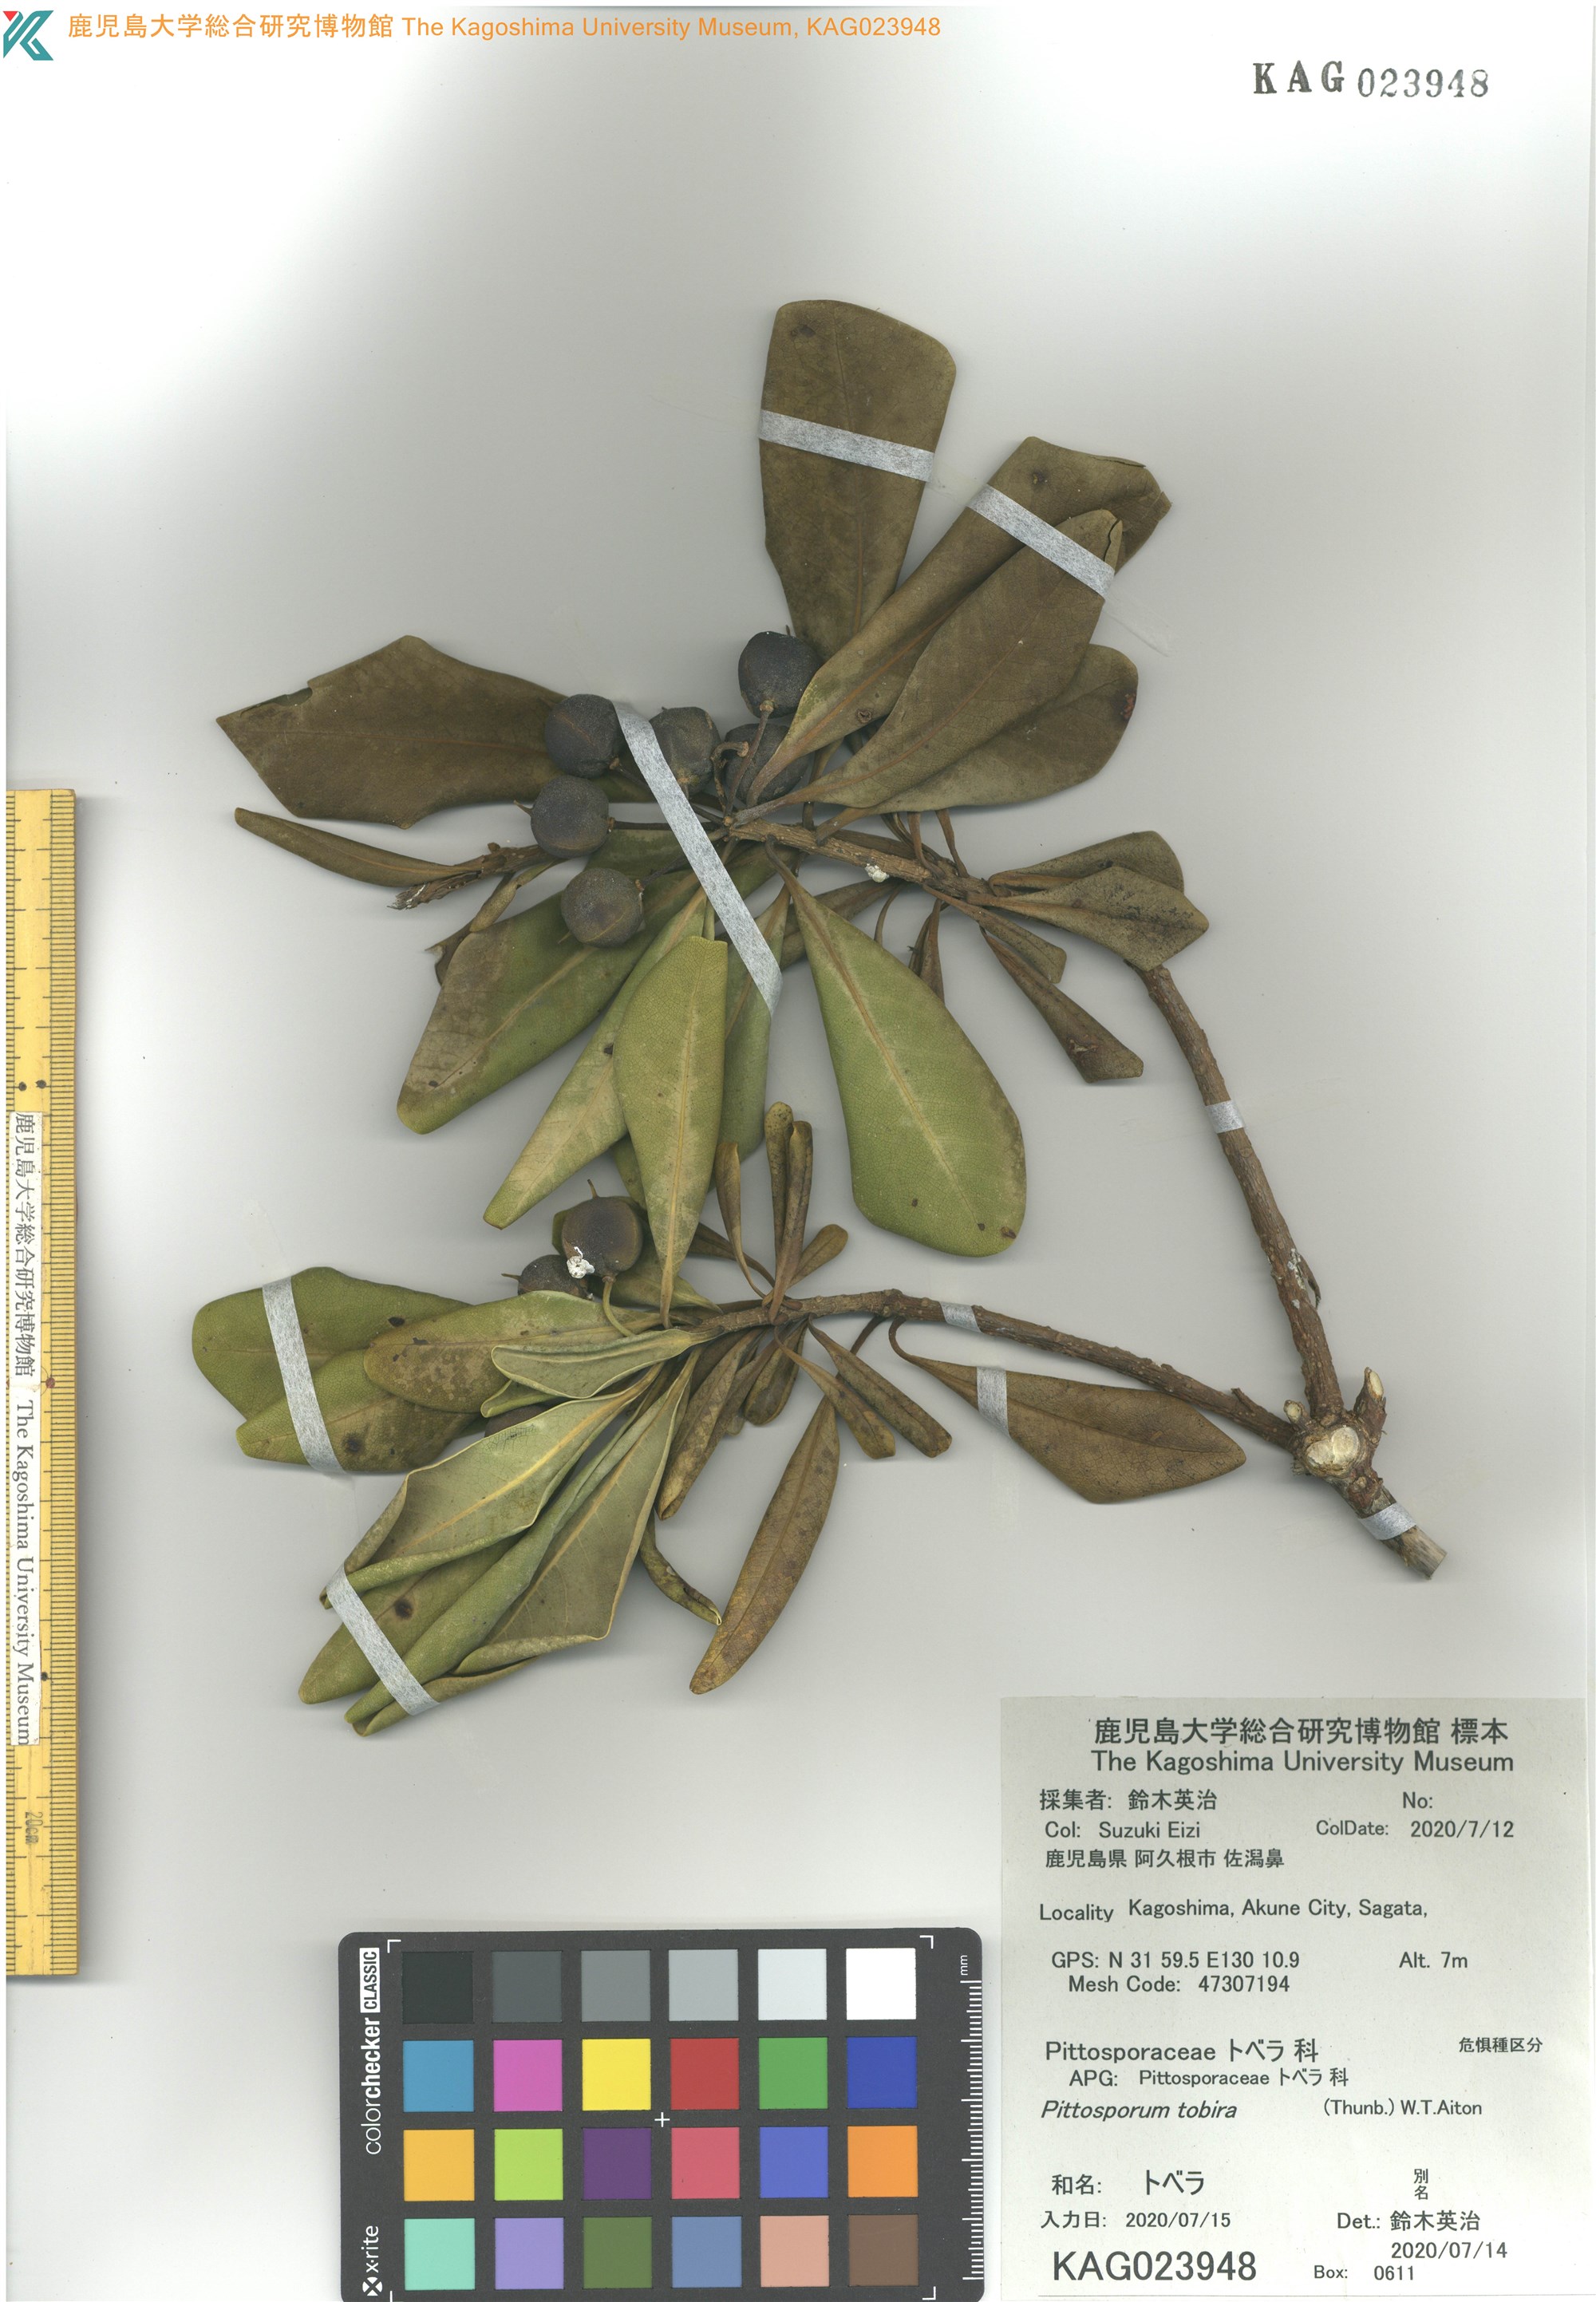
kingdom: Plantae
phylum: Tracheophyta
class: Magnoliopsida
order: Apiales
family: Pittosporaceae
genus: Pittosporum
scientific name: Pittosporum tobira
